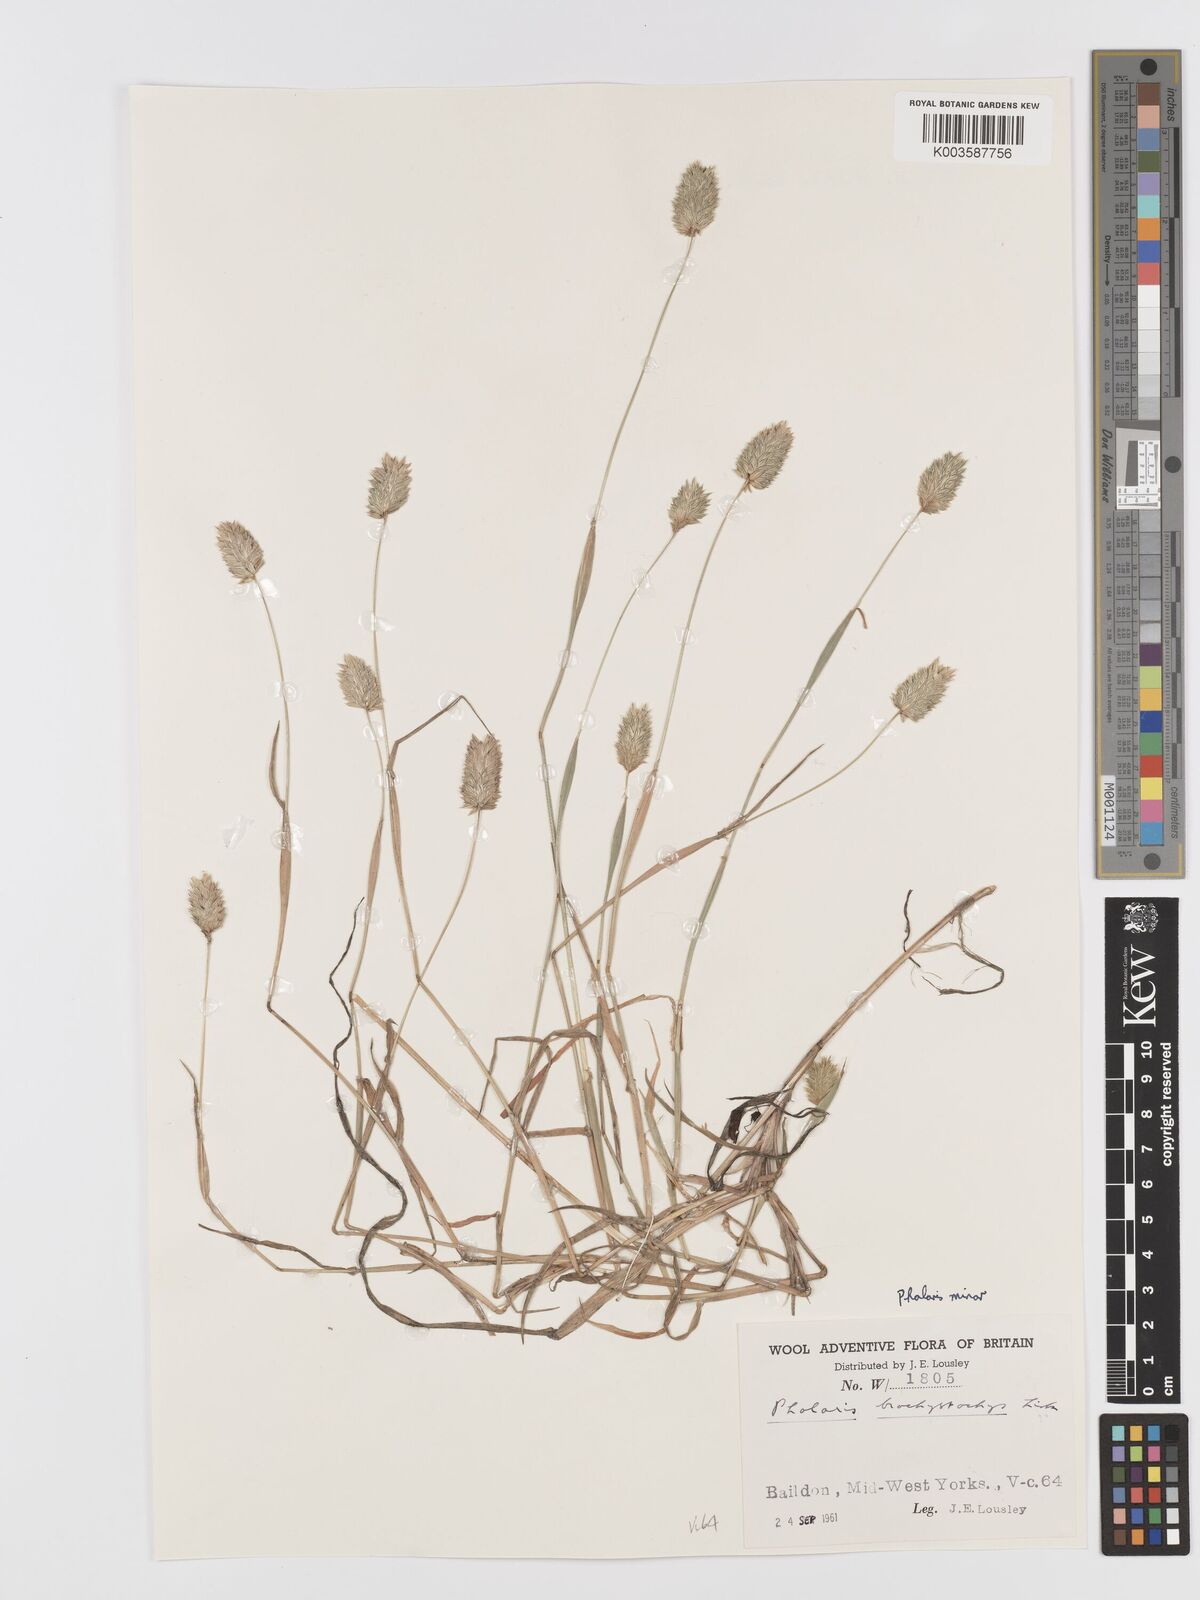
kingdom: Plantae
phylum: Tracheophyta
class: Liliopsida
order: Poales
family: Poaceae
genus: Phalaris
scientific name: Phalaris minor
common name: Littleseed canarygrass
